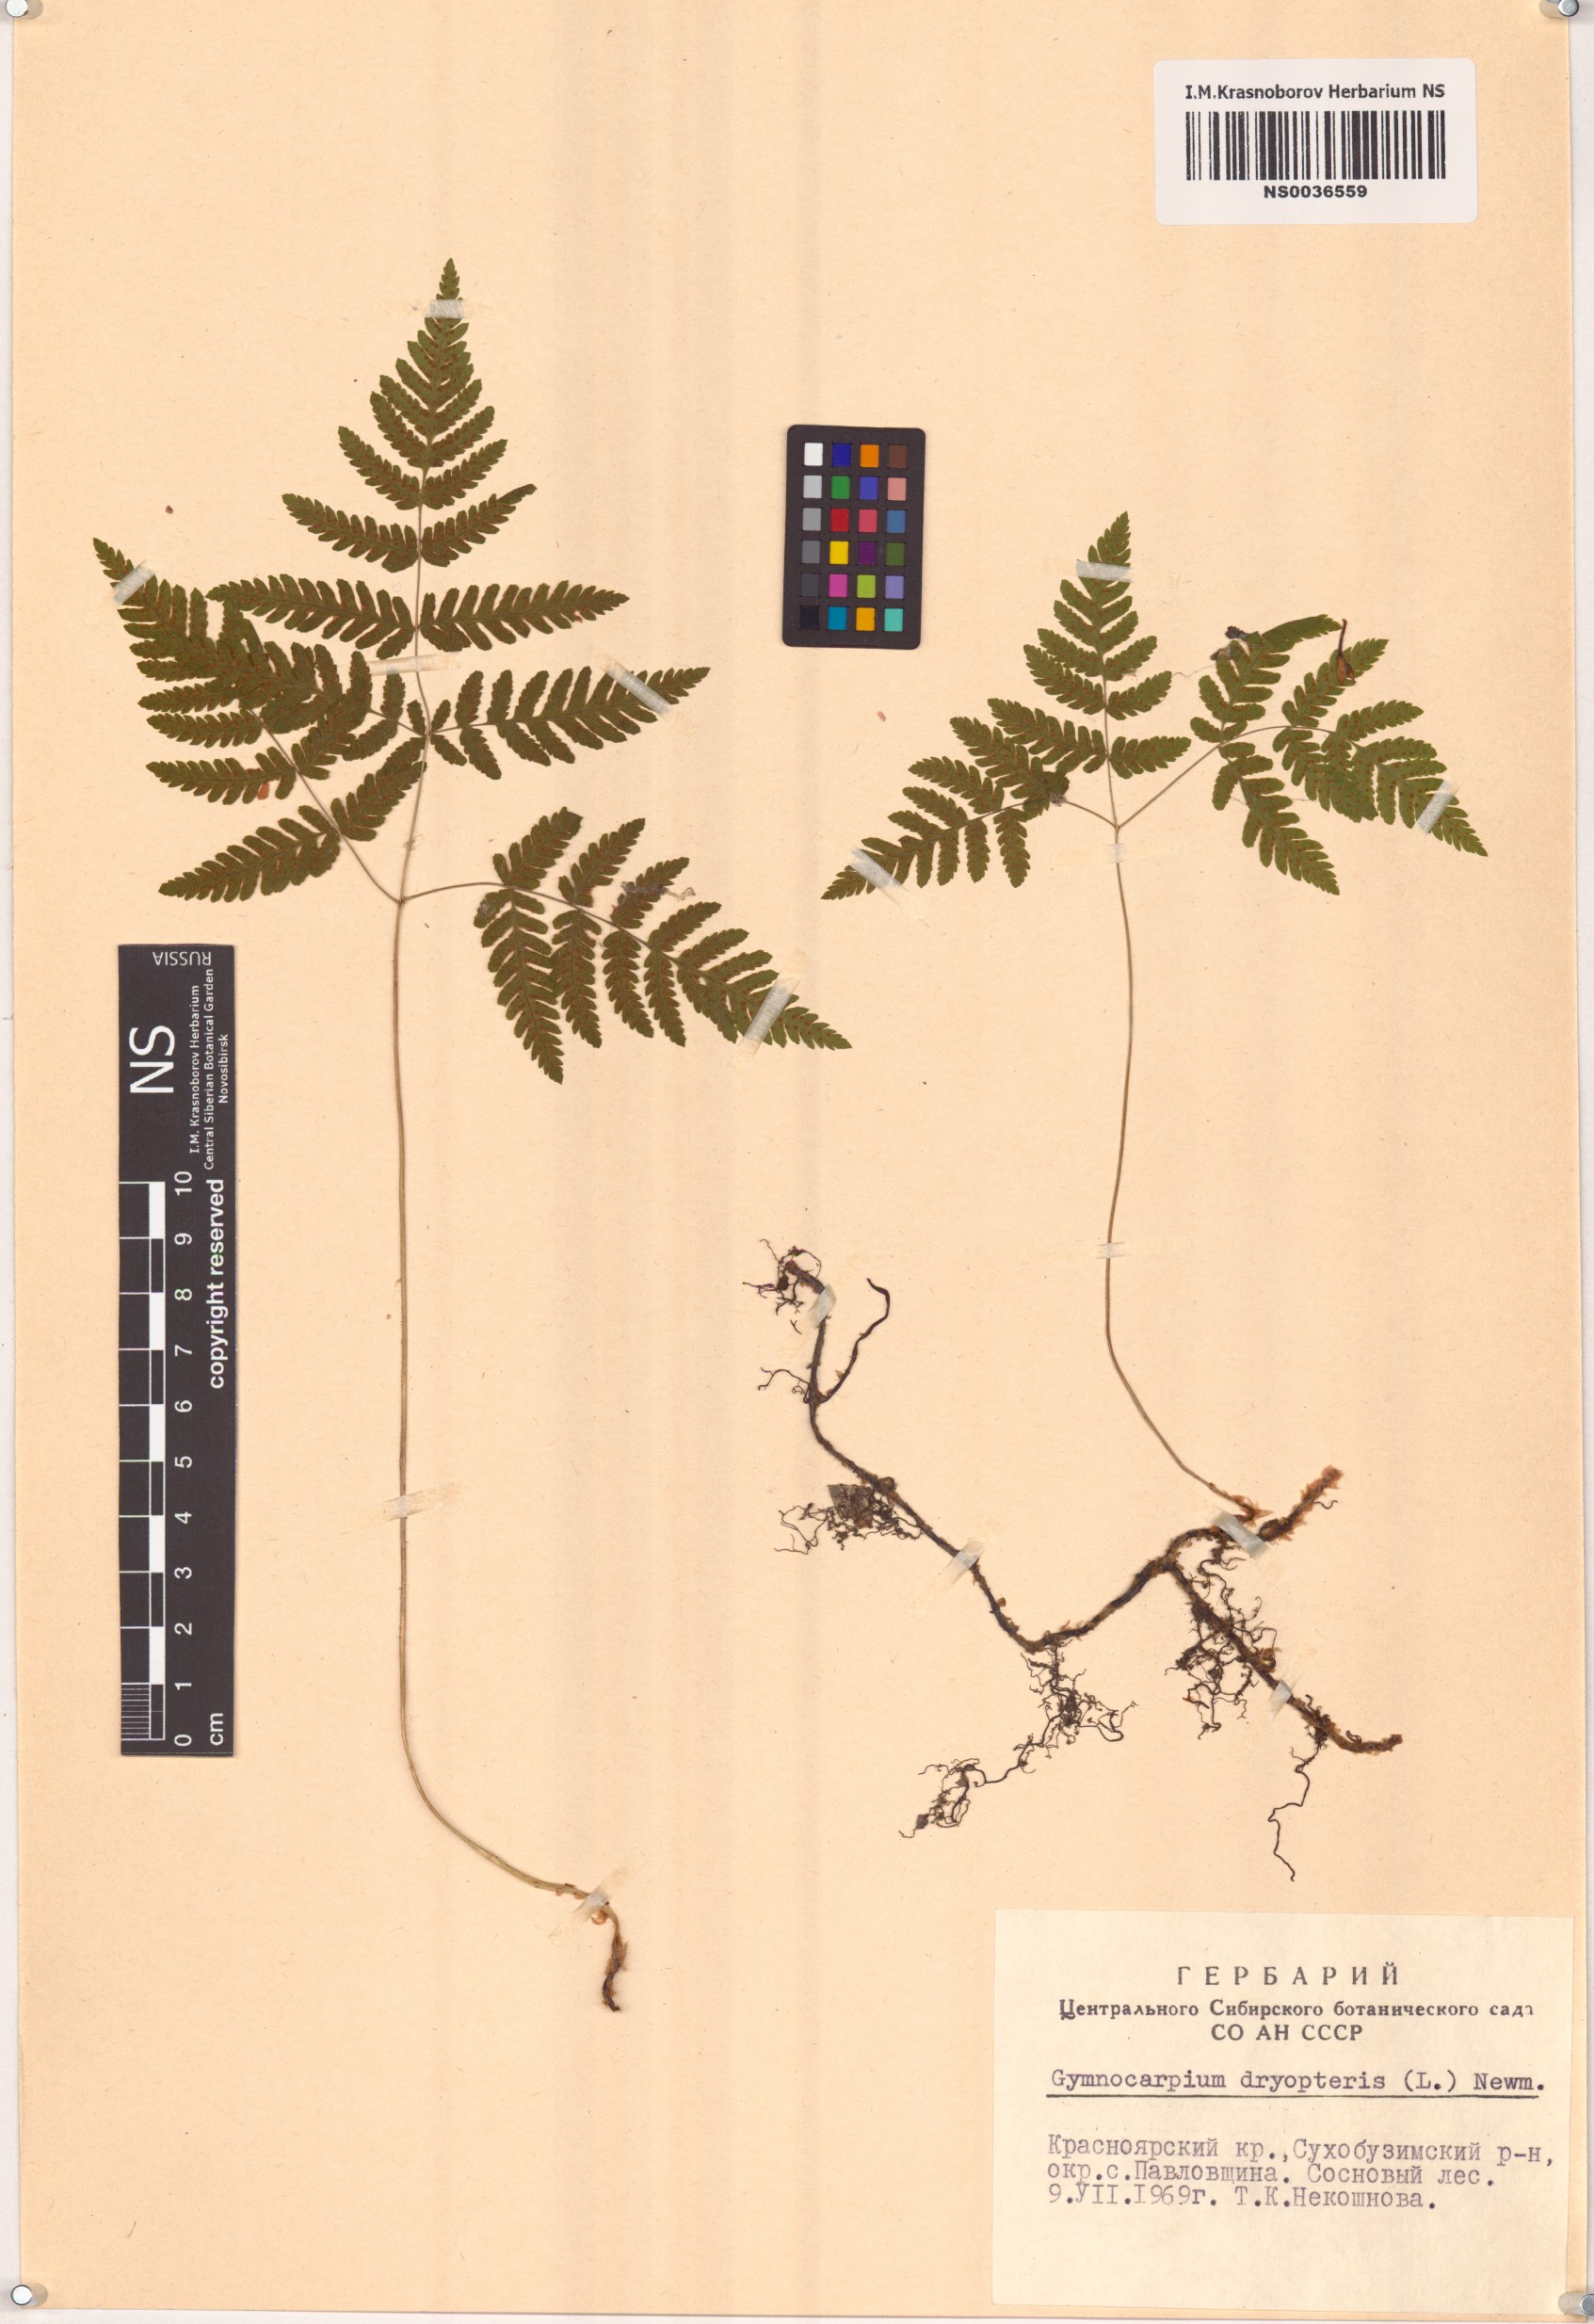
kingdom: Plantae
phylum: Tracheophyta
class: Polypodiopsida
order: Polypodiales
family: Cystopteridaceae
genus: Gymnocarpium
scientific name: Gymnocarpium dryopteris
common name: Oak fern
